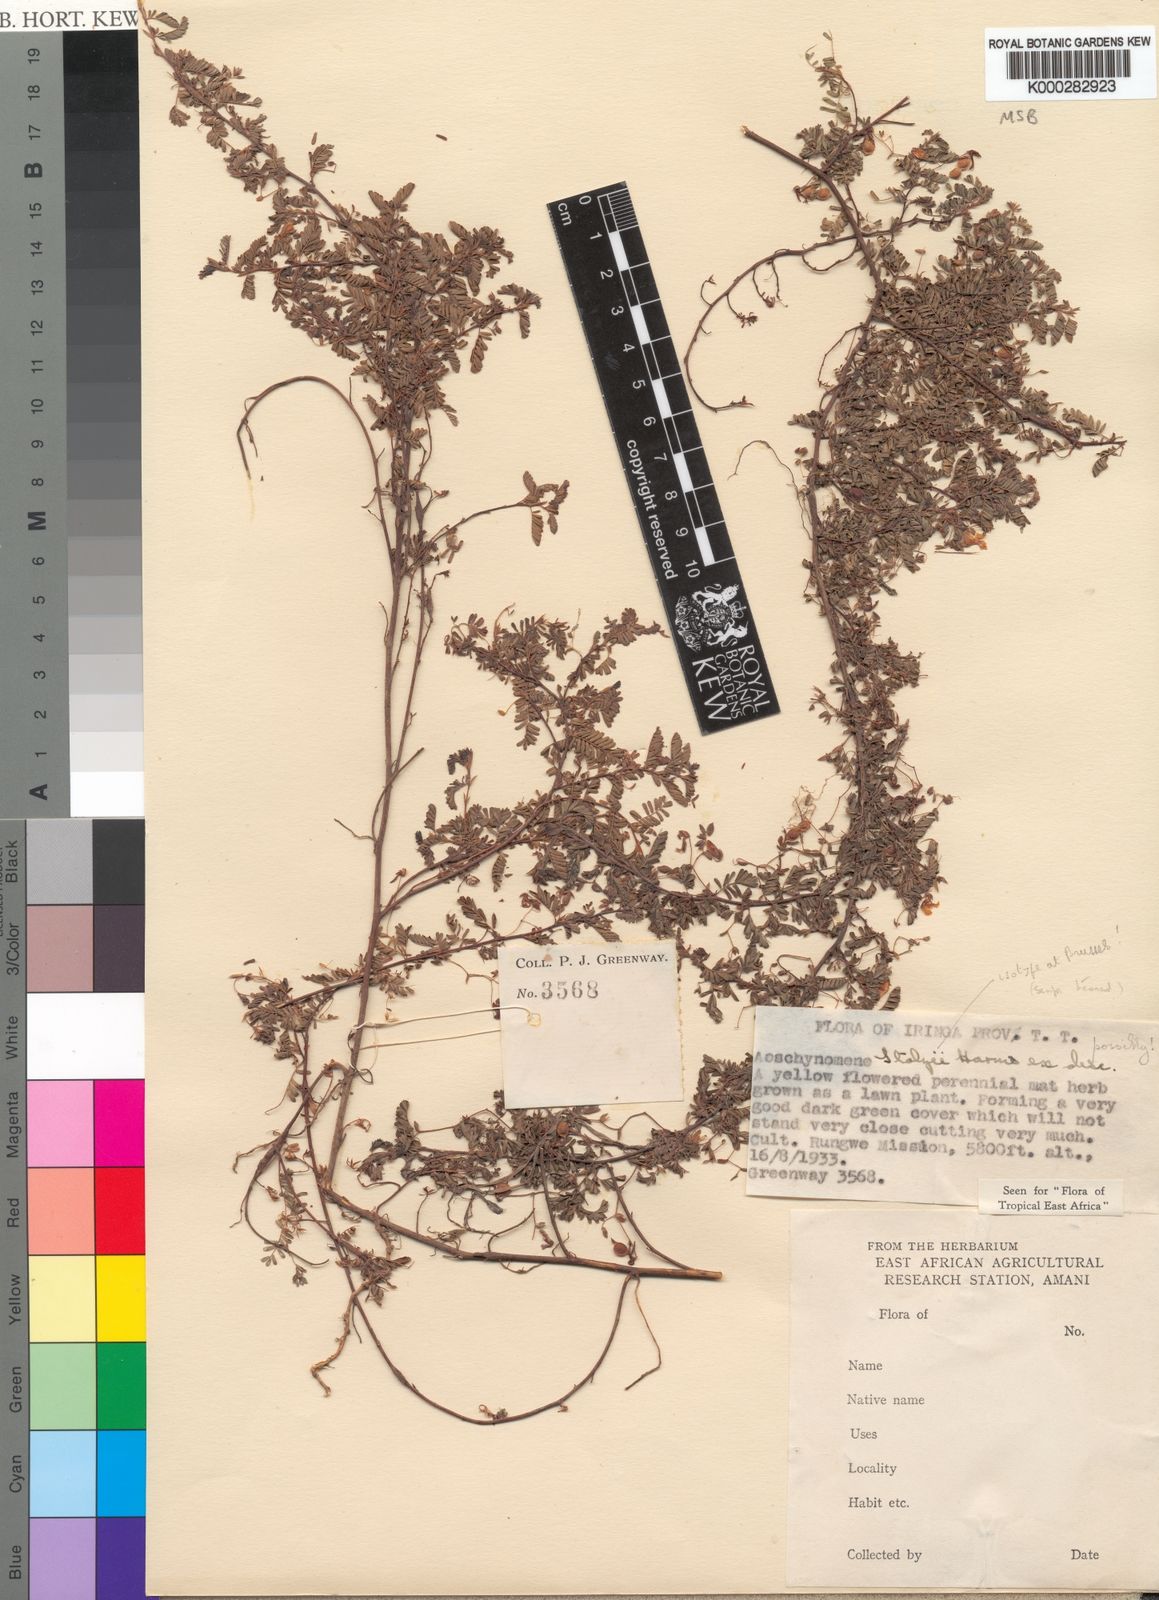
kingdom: Plantae
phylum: Tracheophyta
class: Magnoliopsida
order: Fabales
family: Fabaceae
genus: Aeschynomene
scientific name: Aeschynomene stolzii
